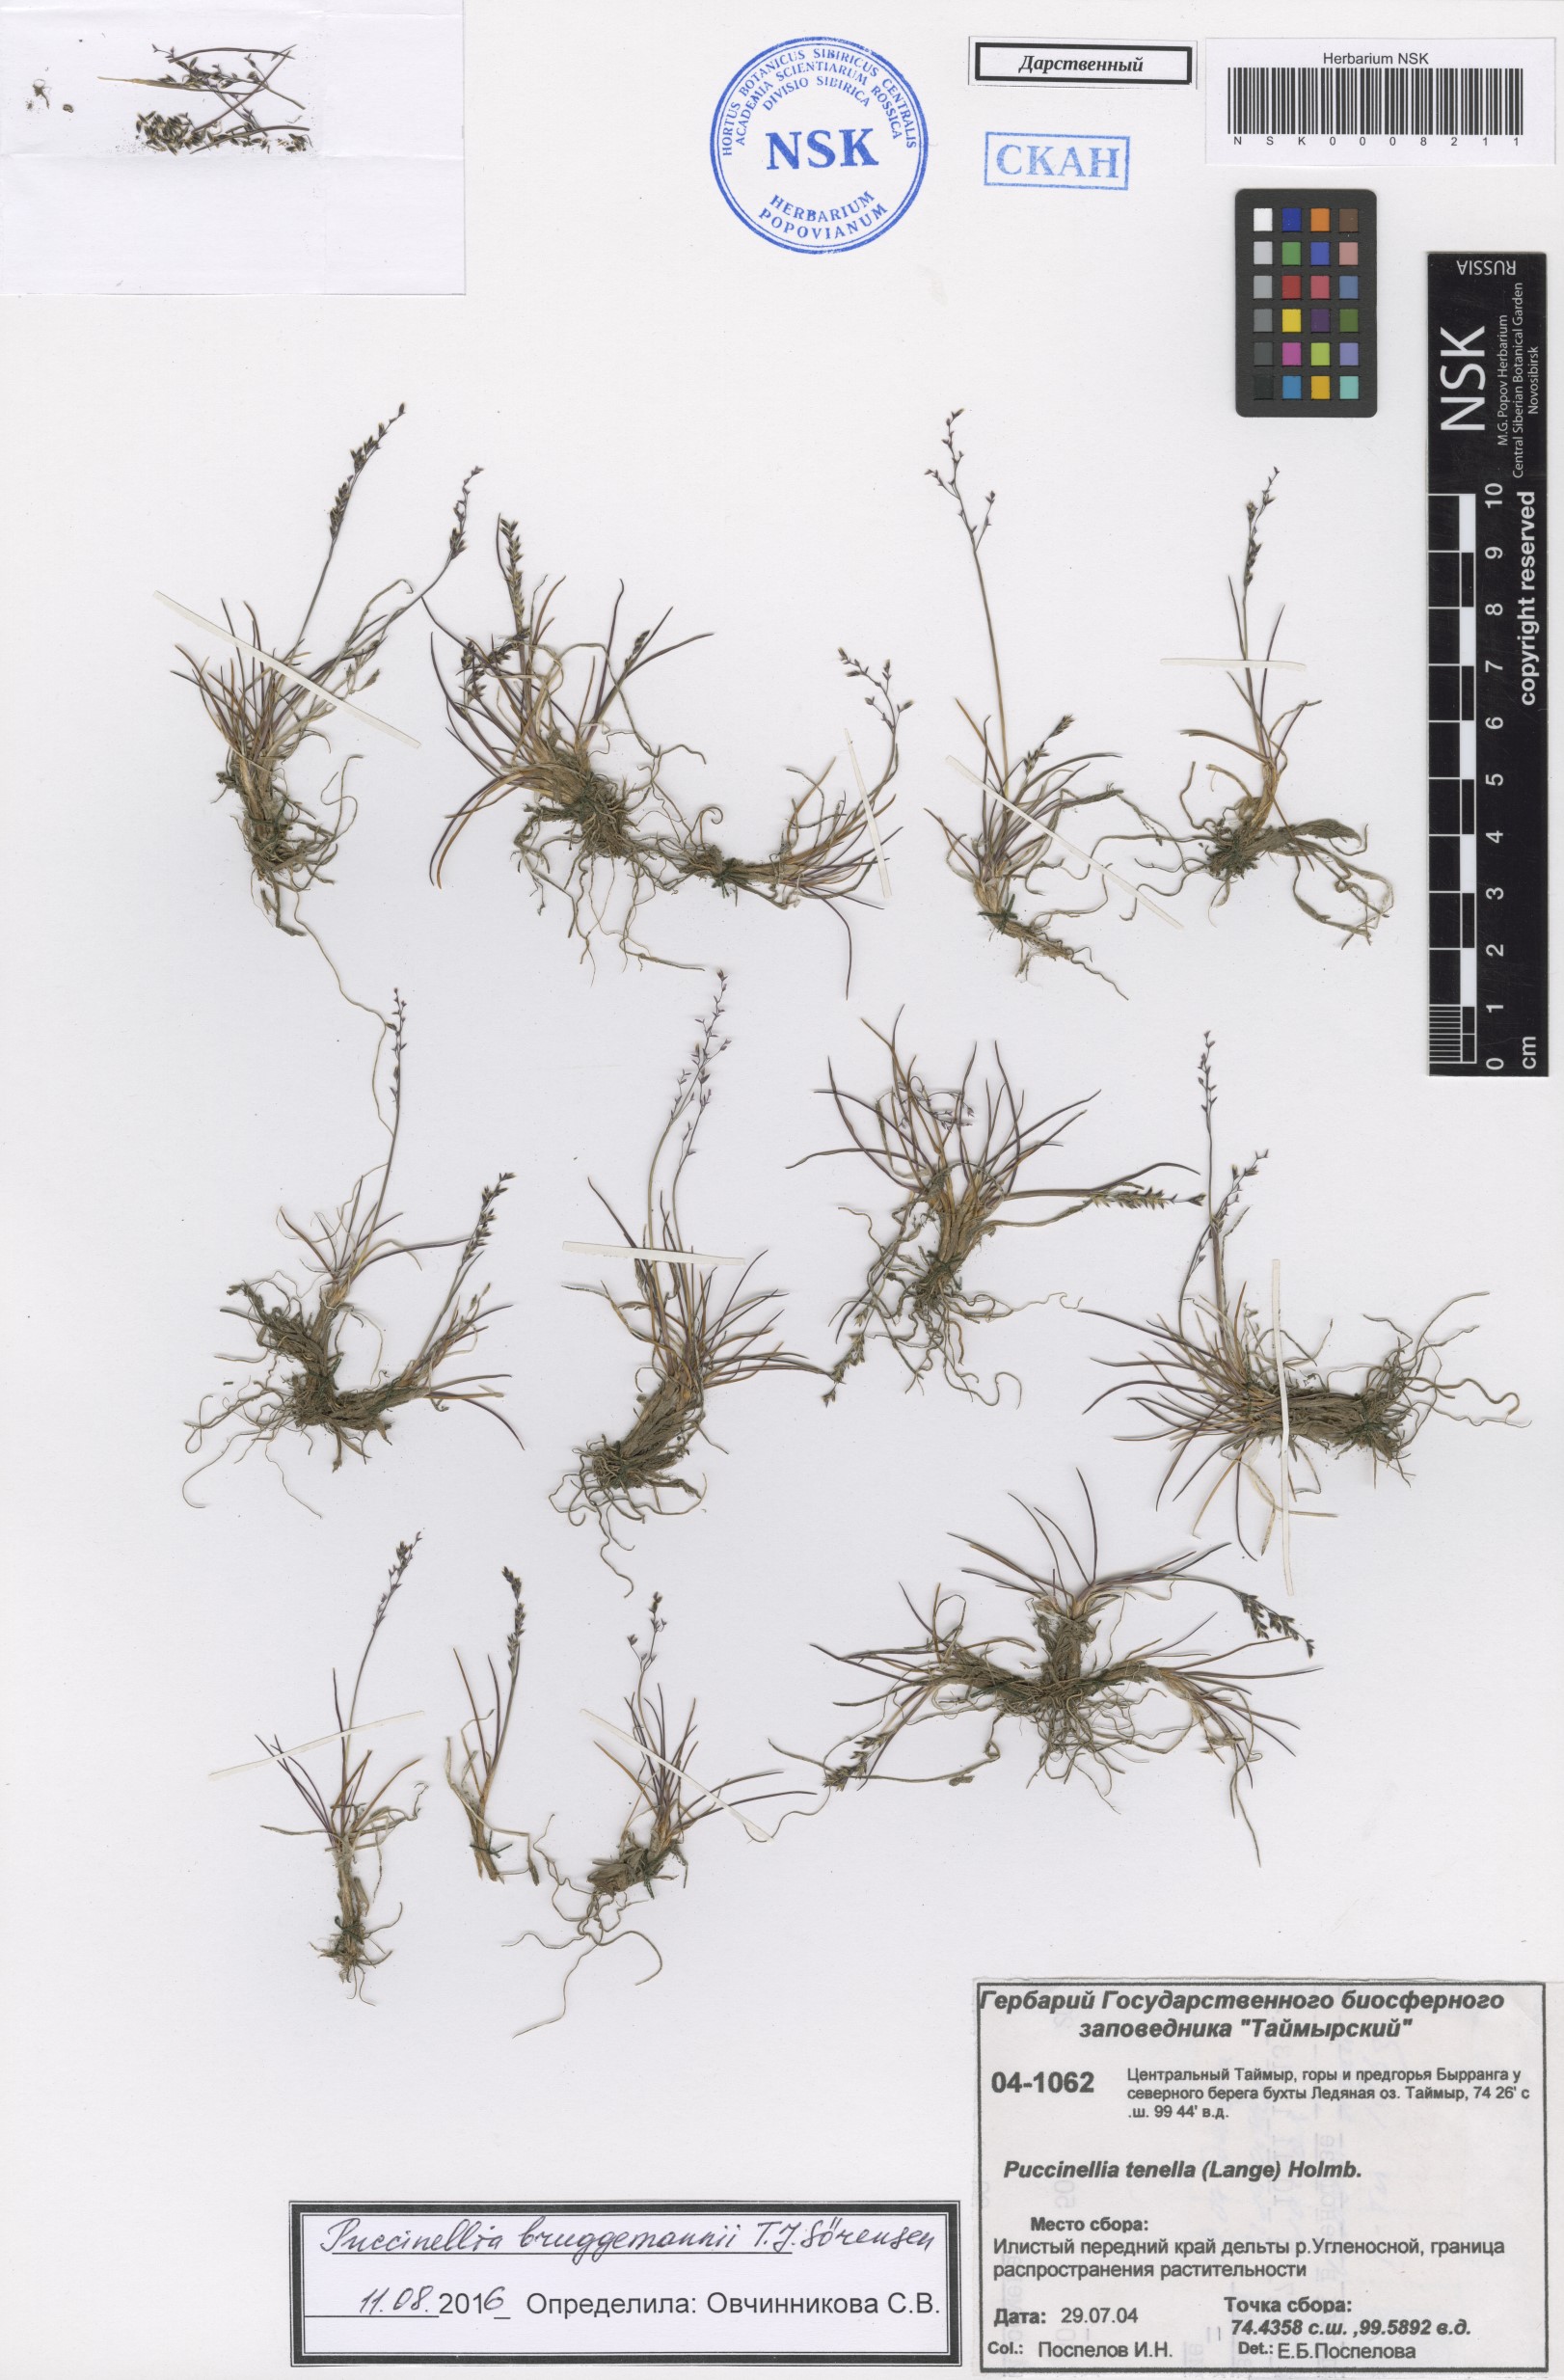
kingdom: Plantae
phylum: Tracheophyta
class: Liliopsida
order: Poales
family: Poaceae
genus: Puccinellia
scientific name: Puccinellia bruggemannii
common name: Bruggemann's alkaligrass
